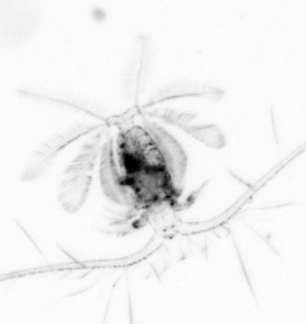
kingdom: Animalia
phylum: Arthropoda
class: Copepoda
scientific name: Copepoda
